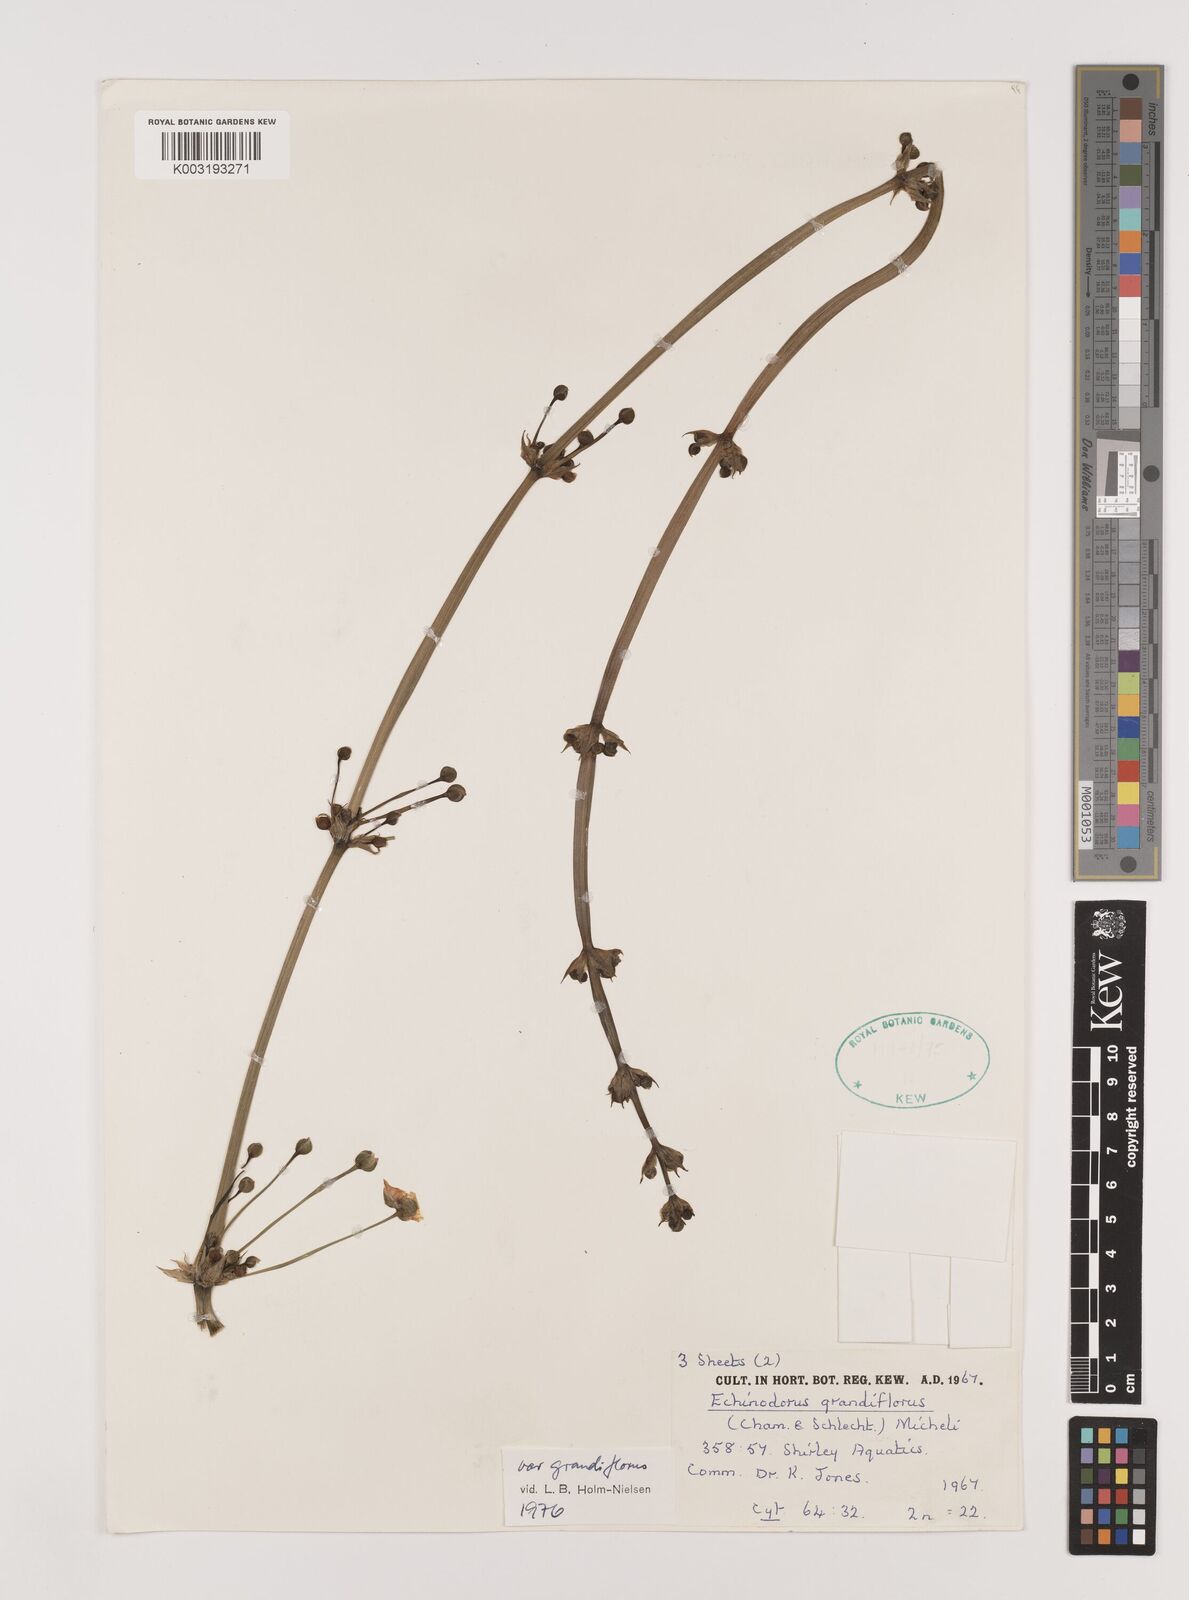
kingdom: Plantae
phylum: Tracheophyta
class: Liliopsida
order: Alismatales
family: Alismataceae
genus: Aquarius
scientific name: Aquarius grandiflorus
